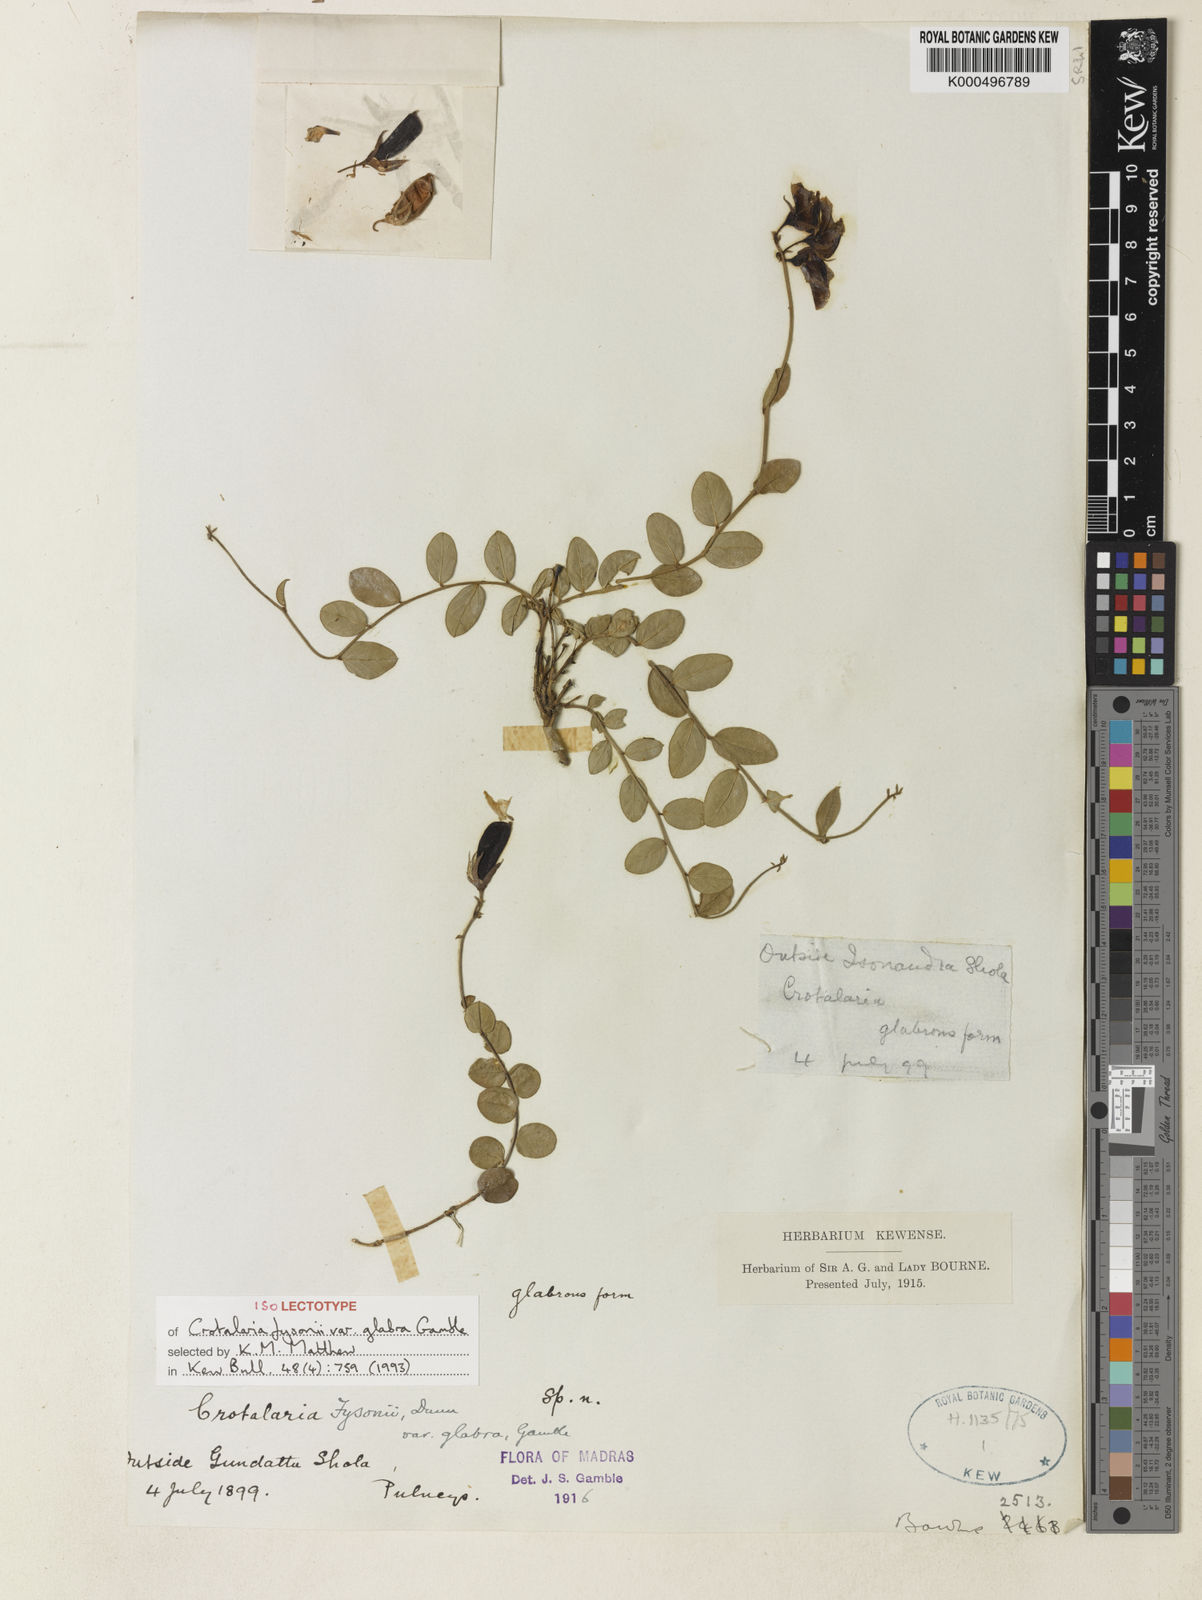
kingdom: Plantae
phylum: Tracheophyta
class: Magnoliopsida
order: Fabales
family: Fabaceae
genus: Crotalaria
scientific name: Crotalaria fysonii
